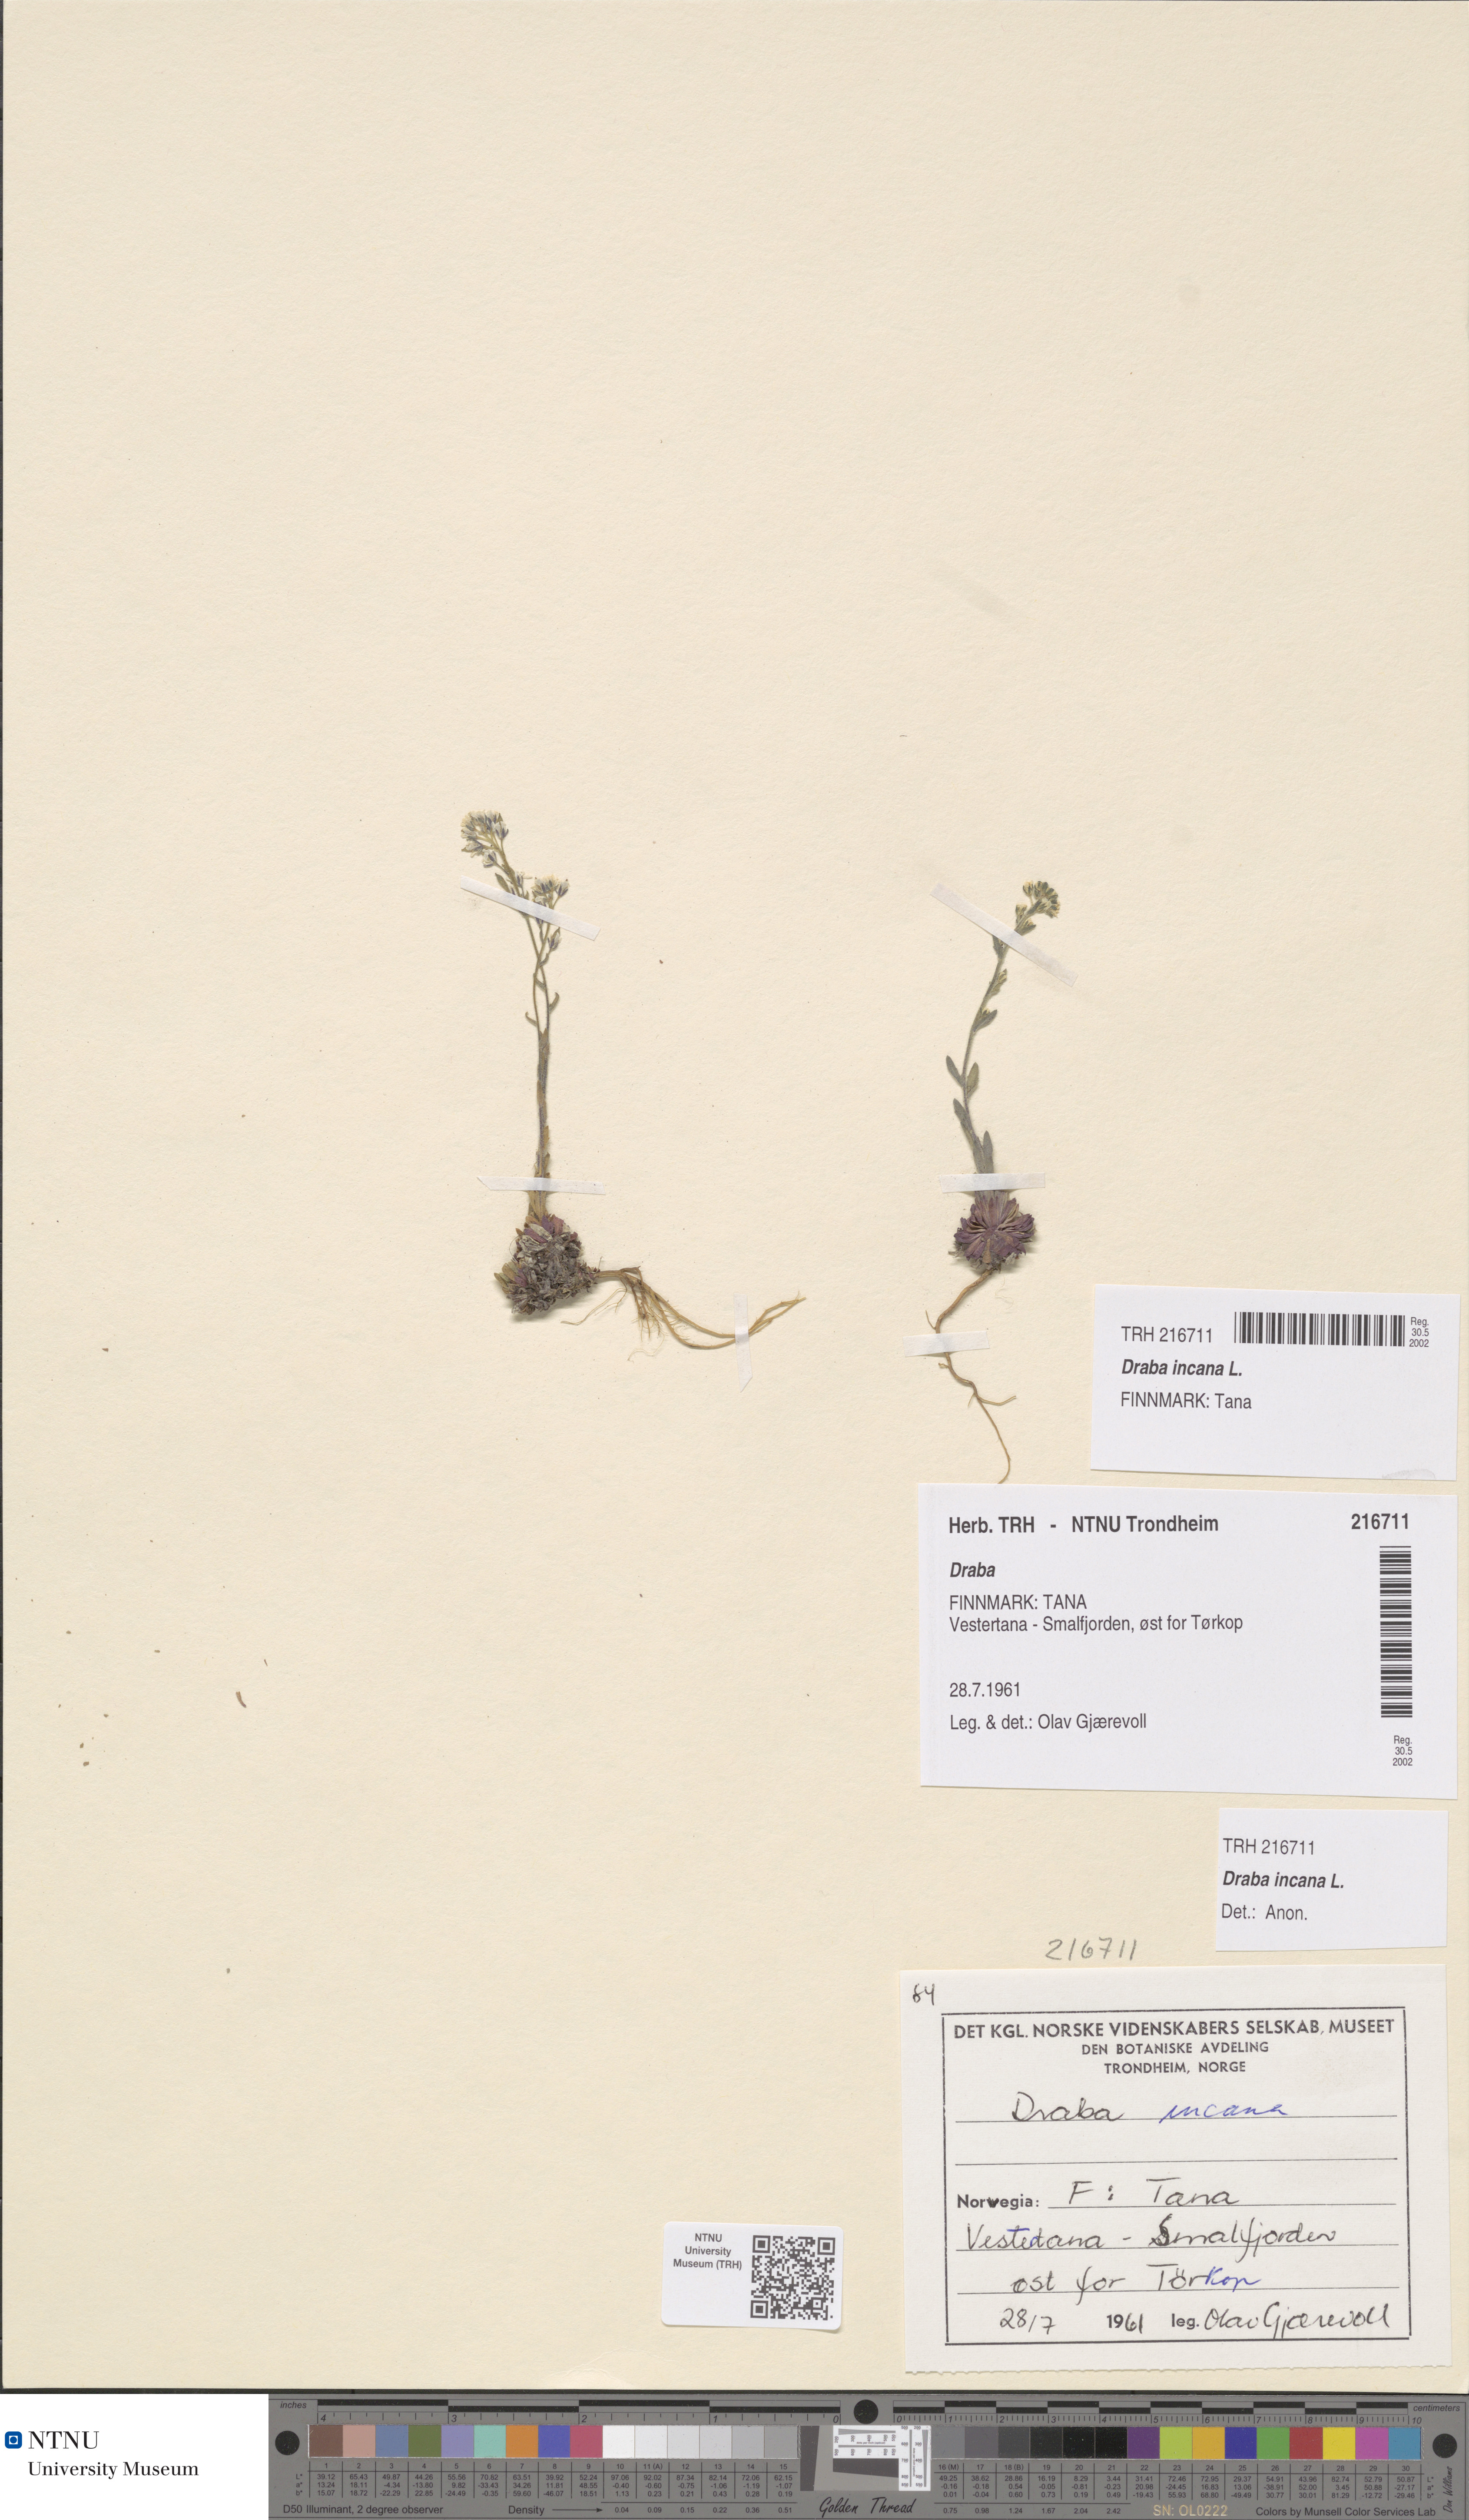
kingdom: Plantae
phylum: Tracheophyta
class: Magnoliopsida
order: Brassicales
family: Brassicaceae
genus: Draba
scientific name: Draba incana
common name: Hoary whitlow-grass
